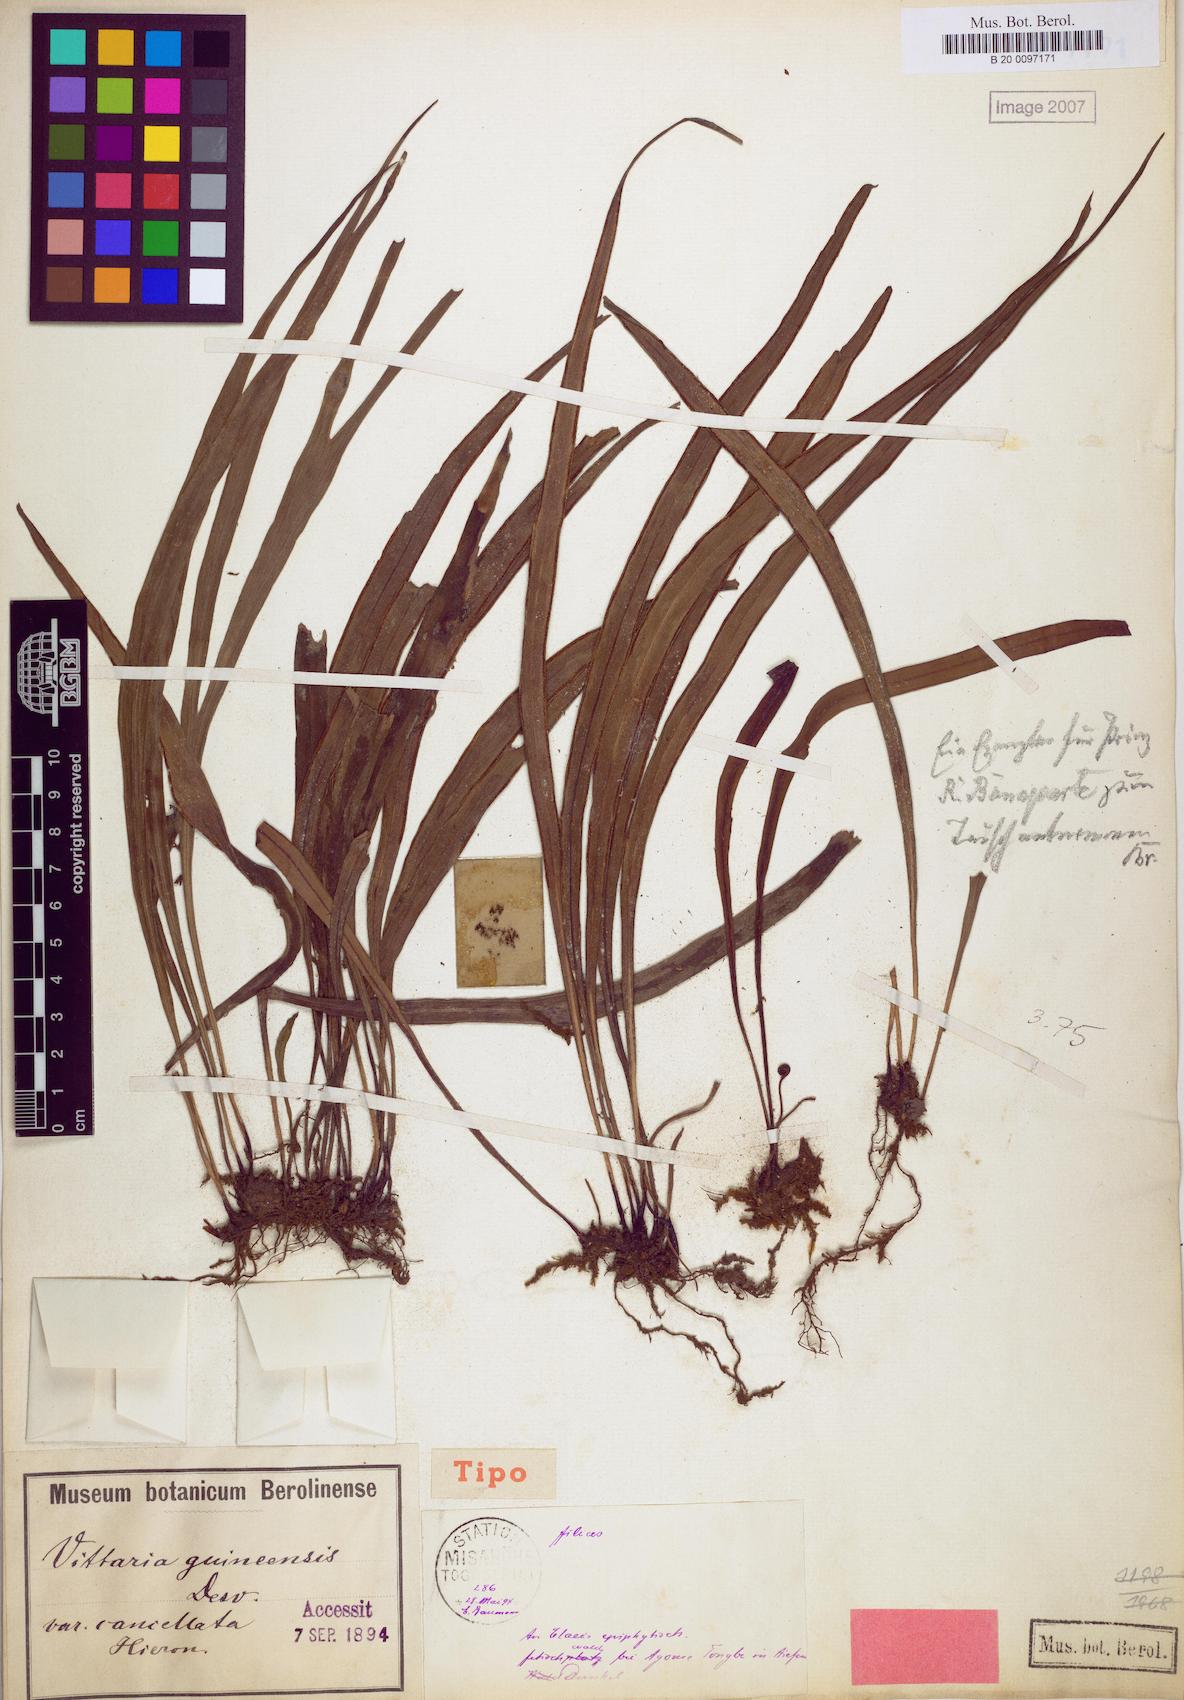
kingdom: Plantae
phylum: Tracheophyta
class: Polypodiopsida
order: Polypodiales
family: Pteridaceae
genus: Haplopteris
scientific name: Haplopteris guineensis
